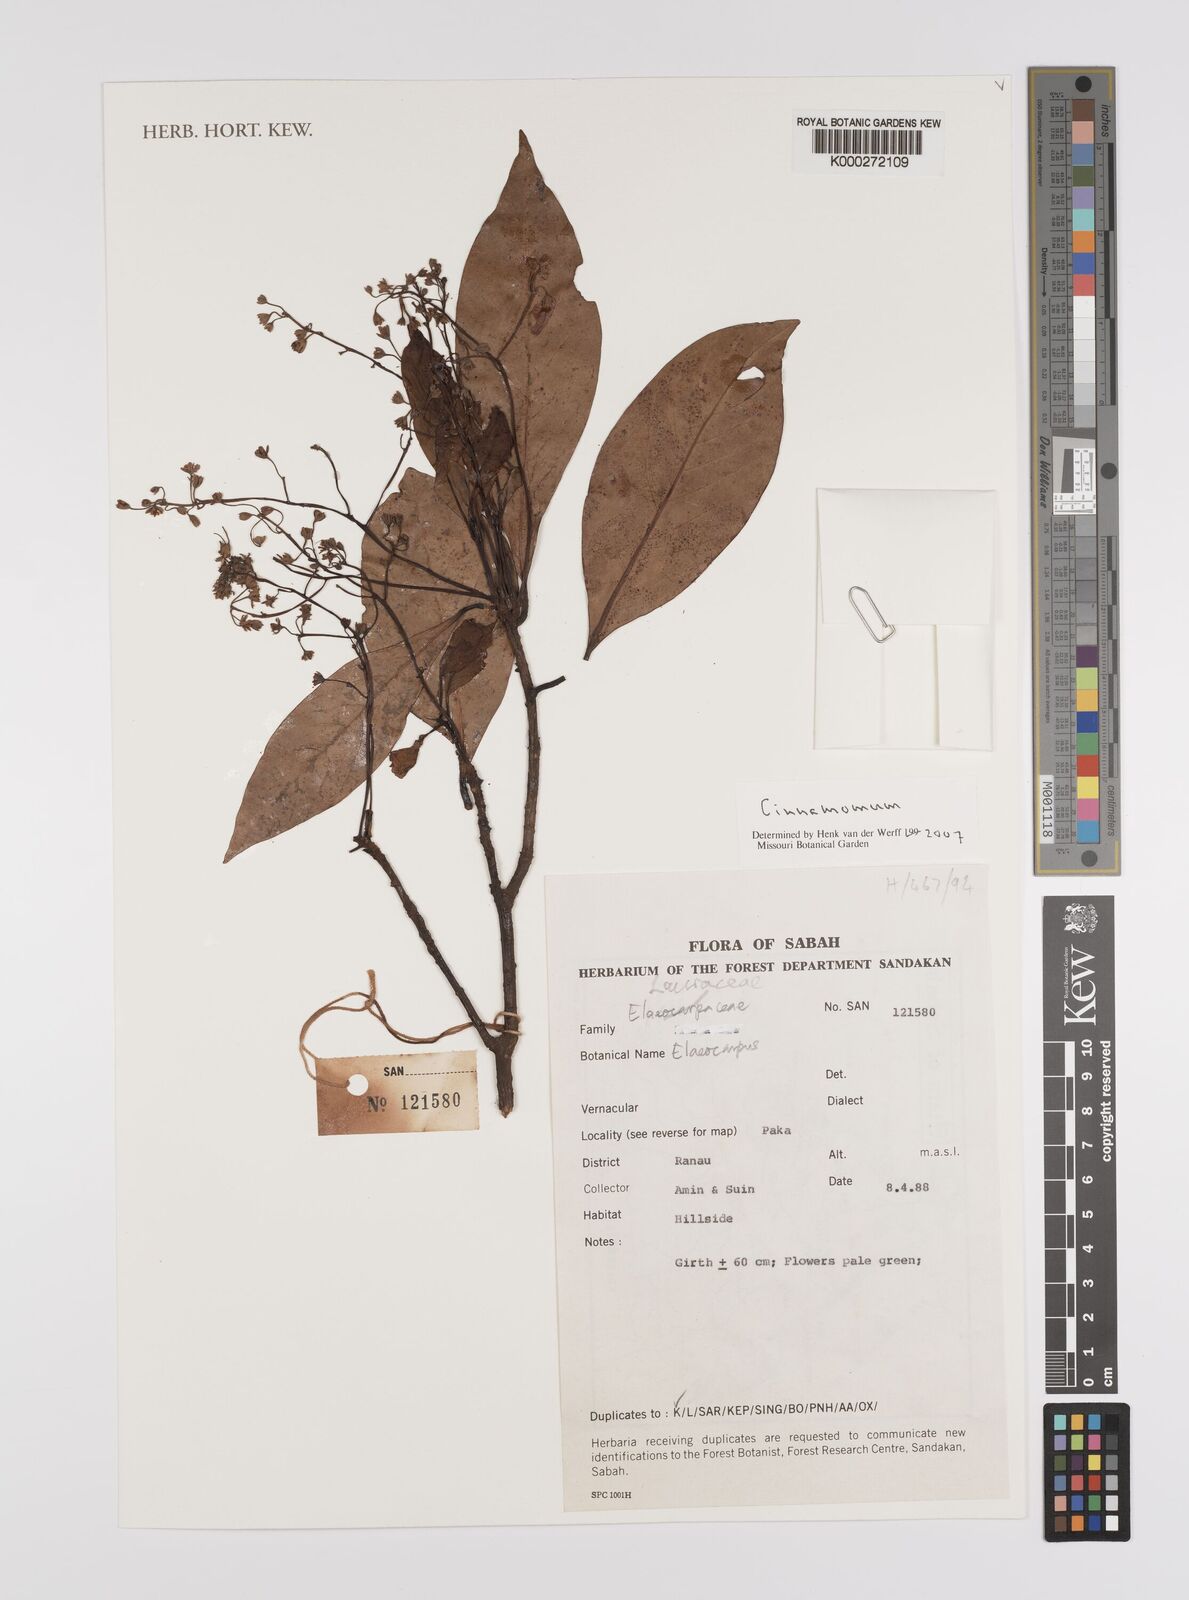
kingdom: Plantae
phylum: Tracheophyta
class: Magnoliopsida
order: Laurales
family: Lauraceae
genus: Cinnamomum
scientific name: Cinnamomum
